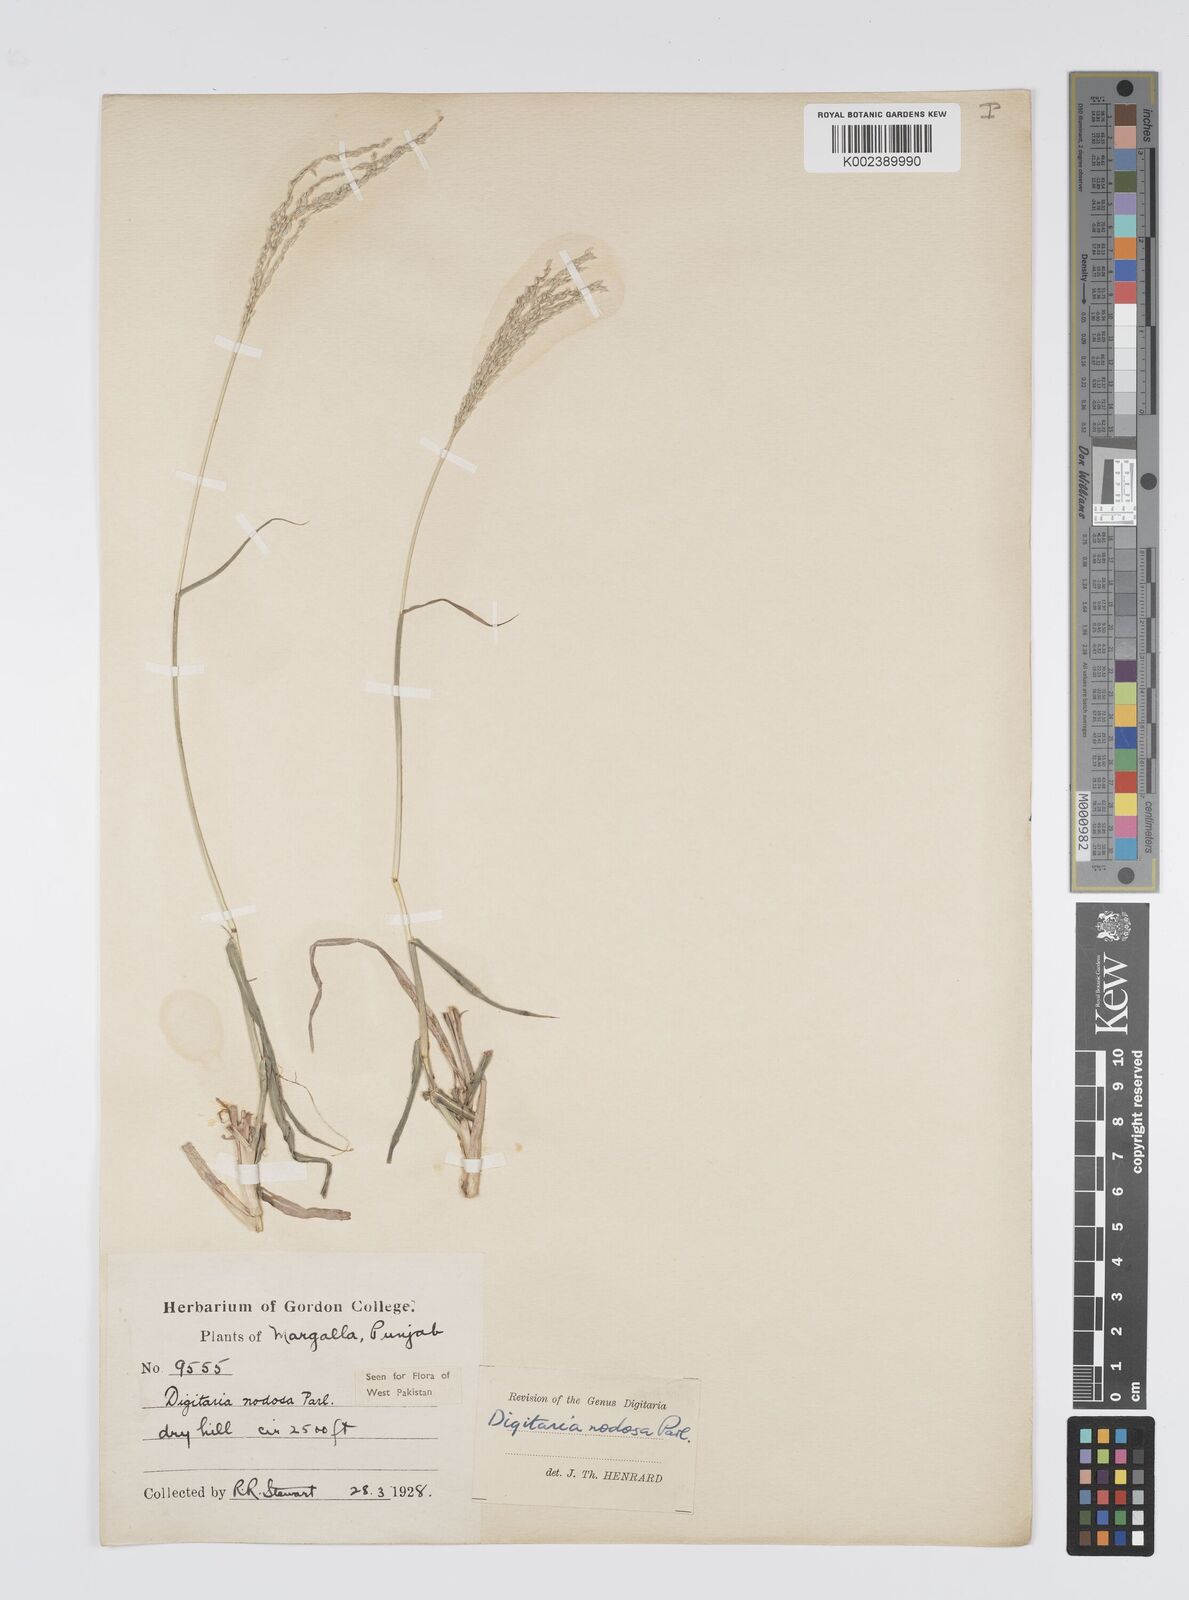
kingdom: Plantae
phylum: Tracheophyta
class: Liliopsida
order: Poales
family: Poaceae
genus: Digitaria
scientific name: Digitaria nodosa
